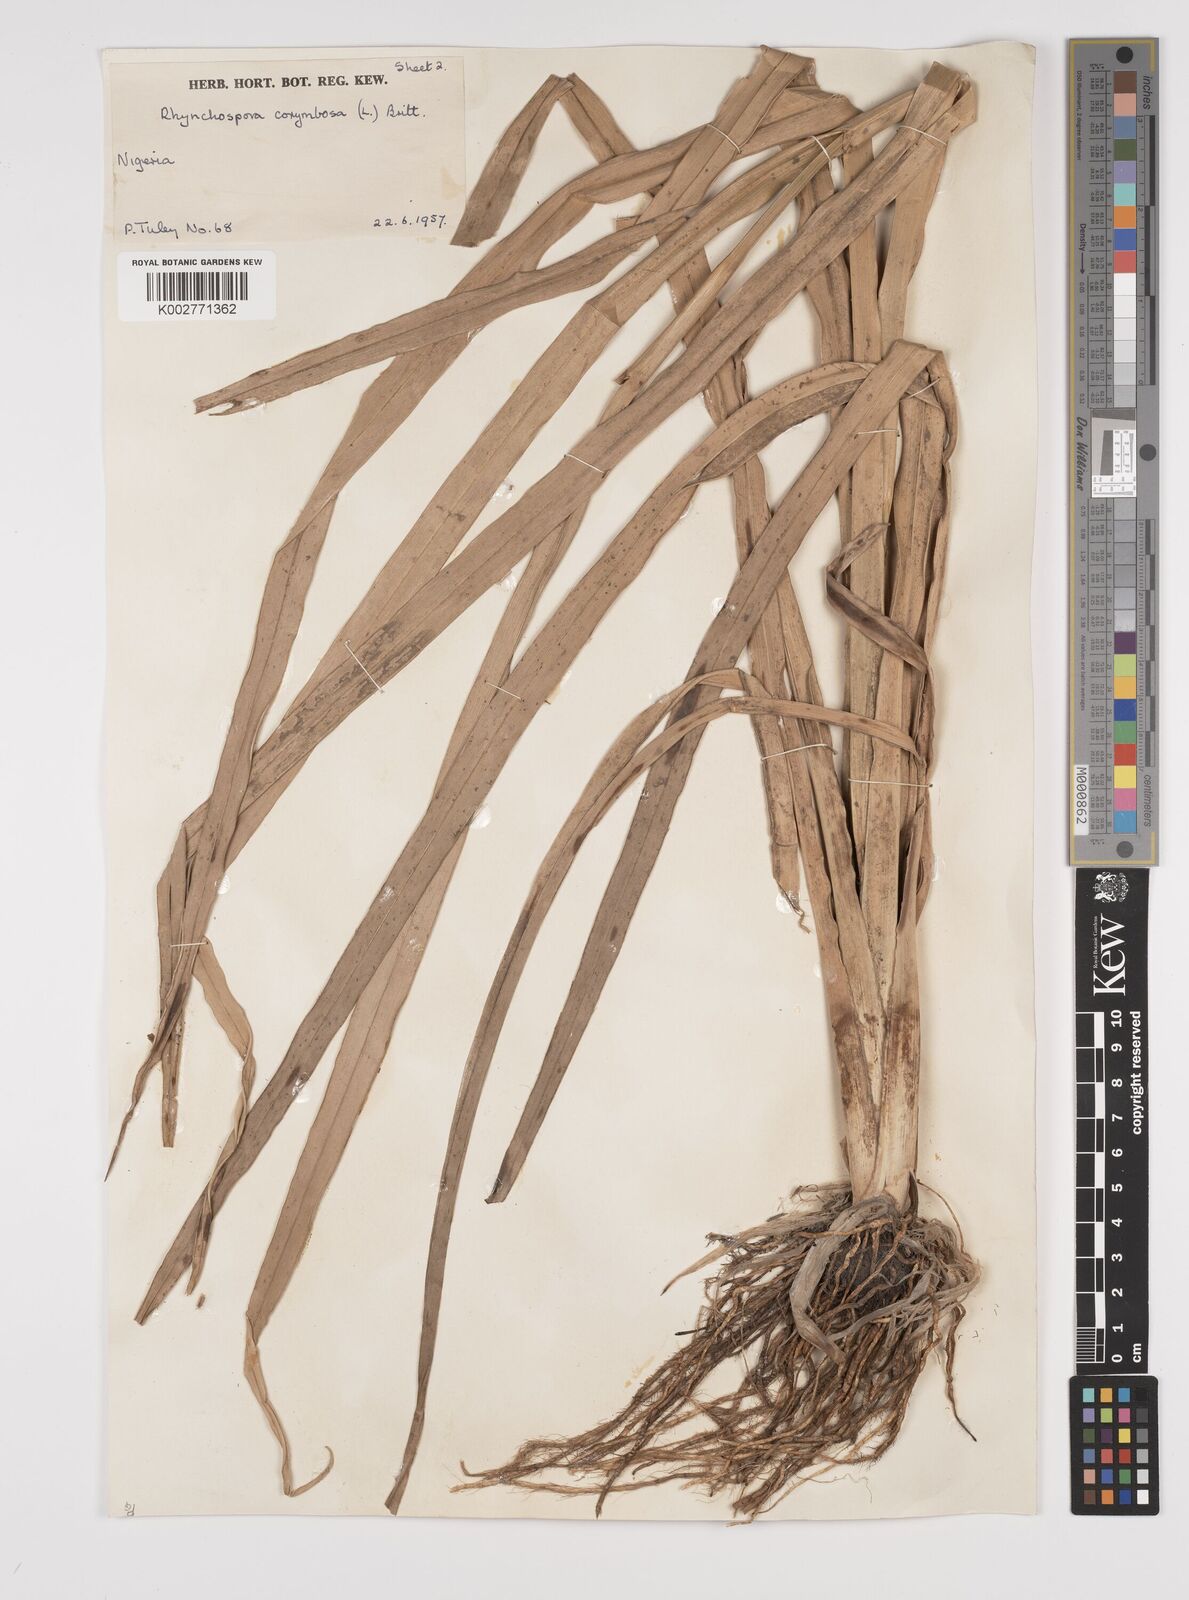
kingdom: Plantae
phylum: Tracheophyta
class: Liliopsida
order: Poales
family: Cyperaceae
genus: Rhynchospora
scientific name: Rhynchospora corymbosa
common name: Golden beak sedge
